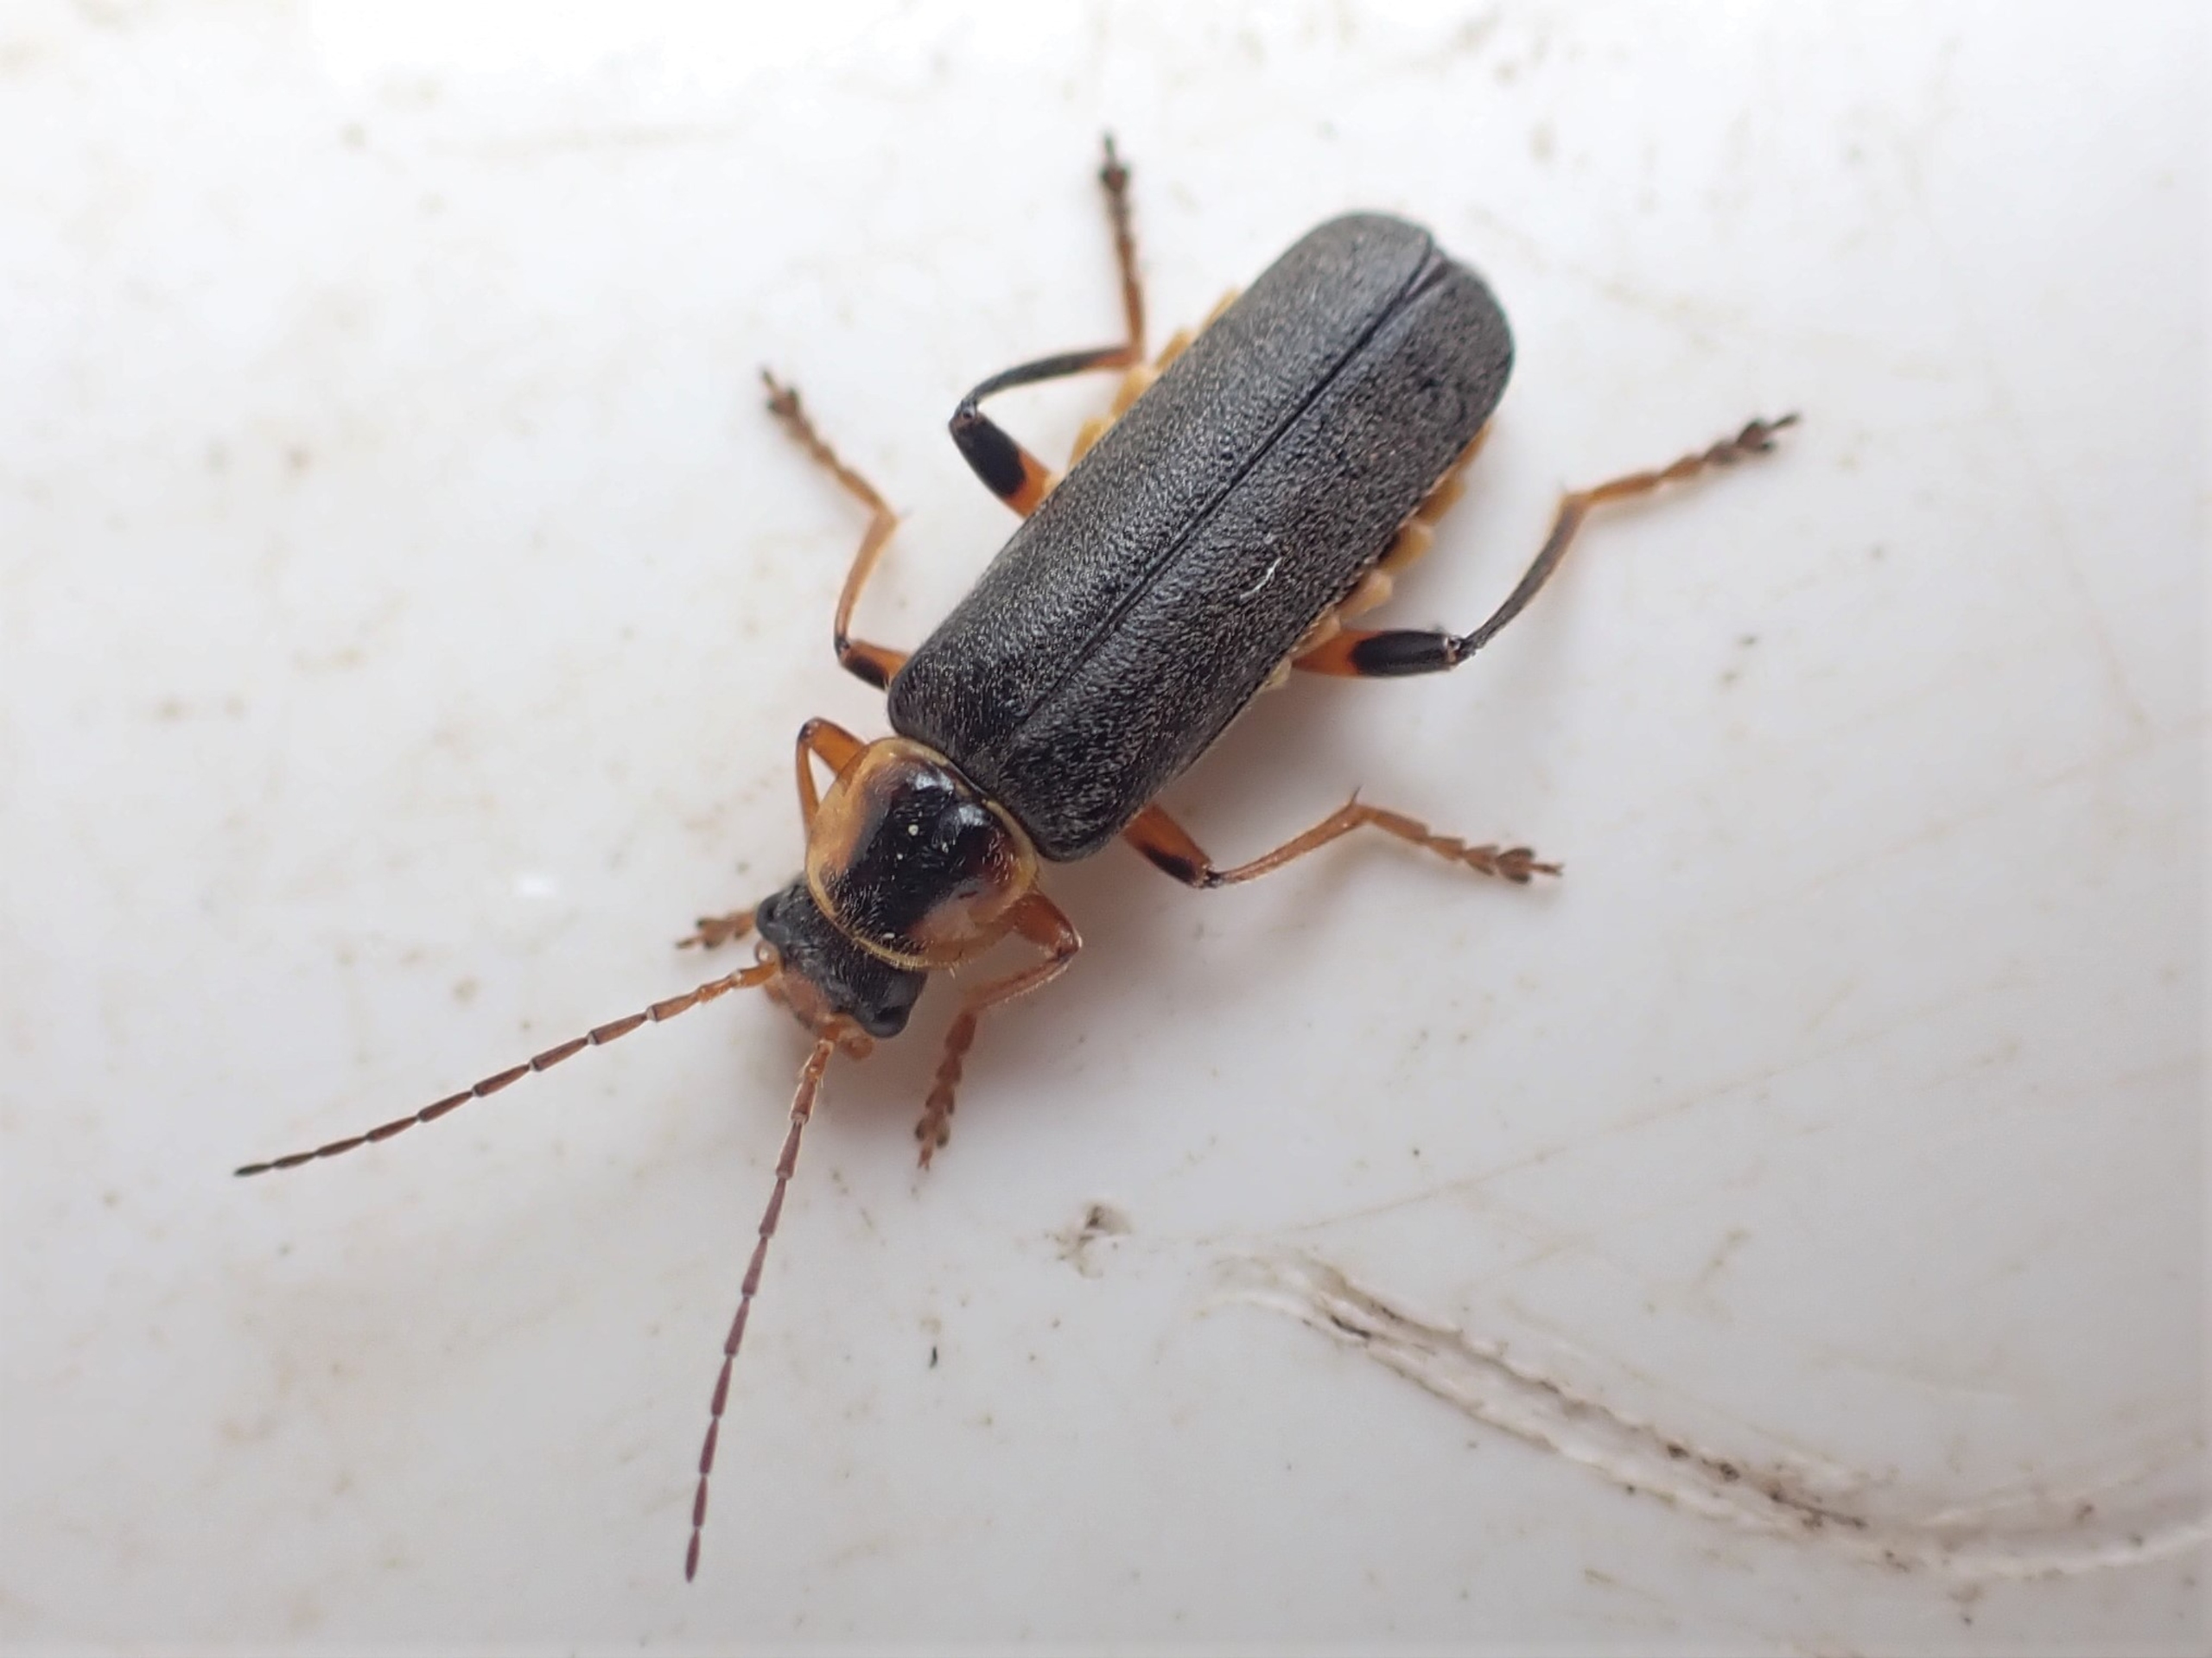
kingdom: Animalia
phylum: Arthropoda
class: Insecta
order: Coleoptera
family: Cantharidae
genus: Cantharis
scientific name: Cantharis nigricans
